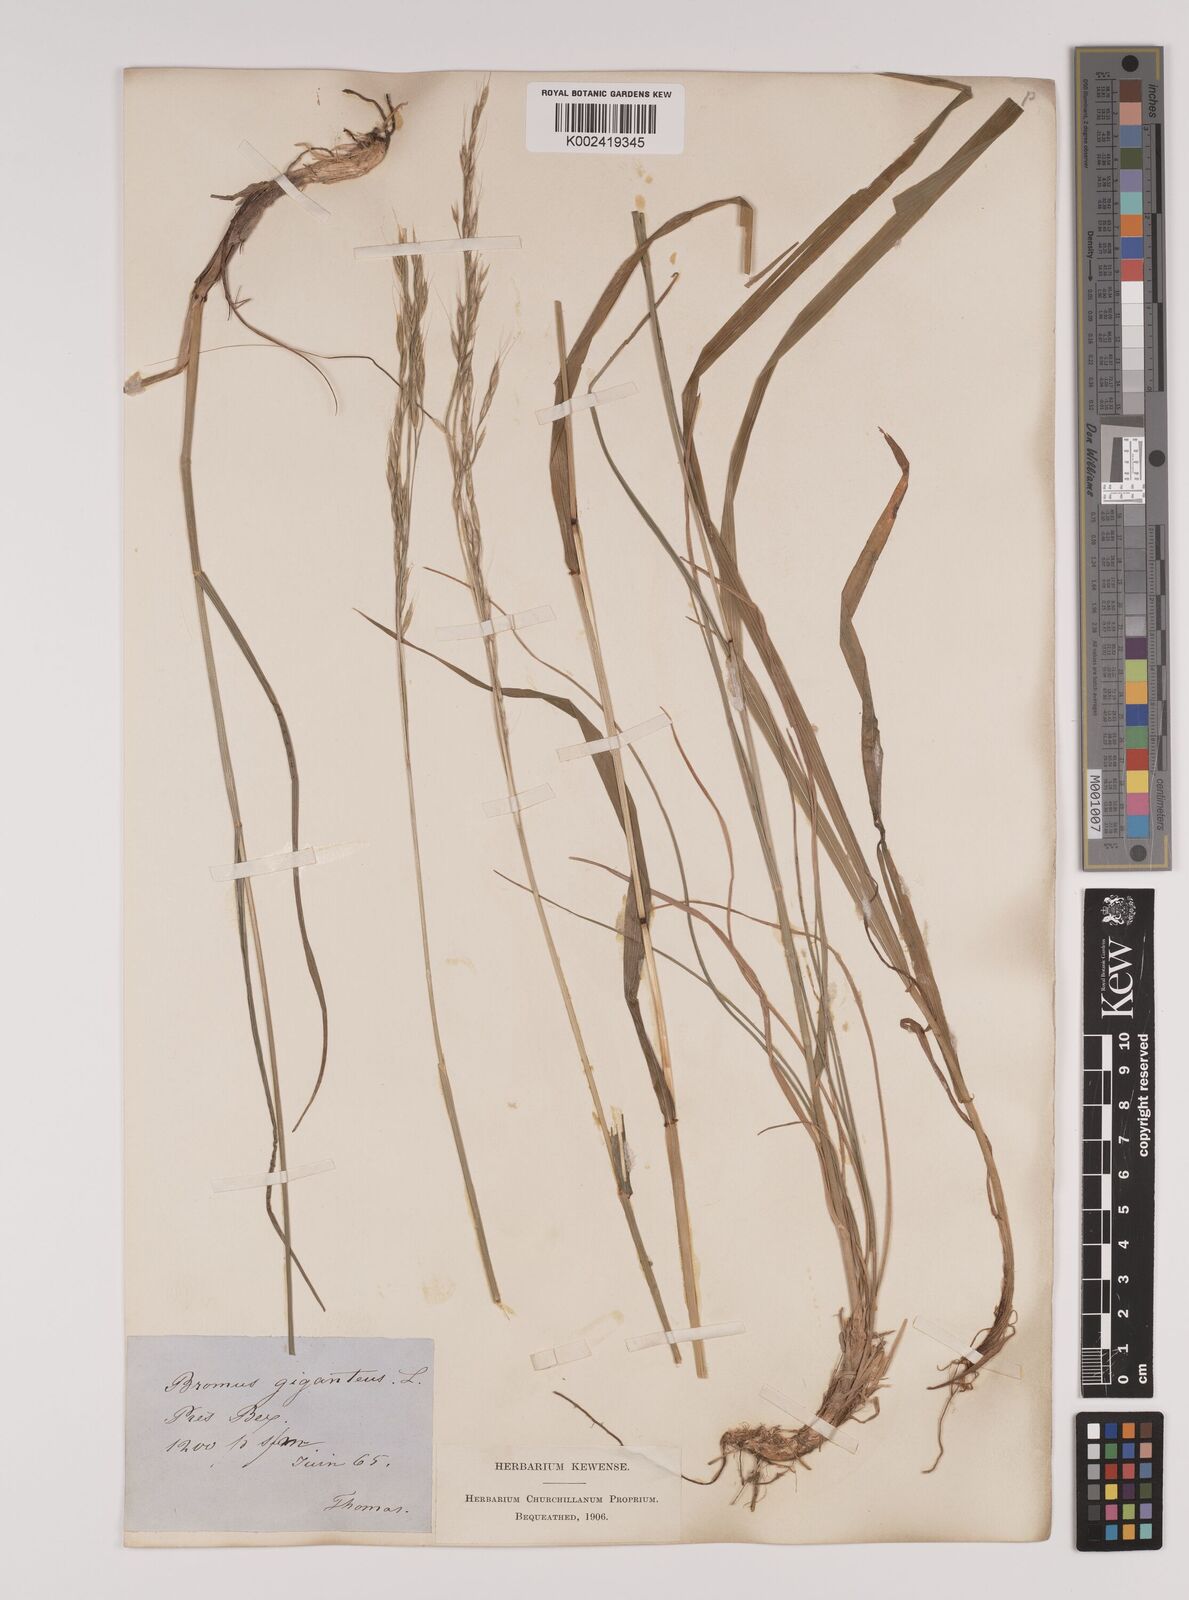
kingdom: Plantae
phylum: Tracheophyta
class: Liliopsida
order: Poales
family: Poaceae
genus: Lolium
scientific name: Lolium giganteum
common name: Giant fescue
